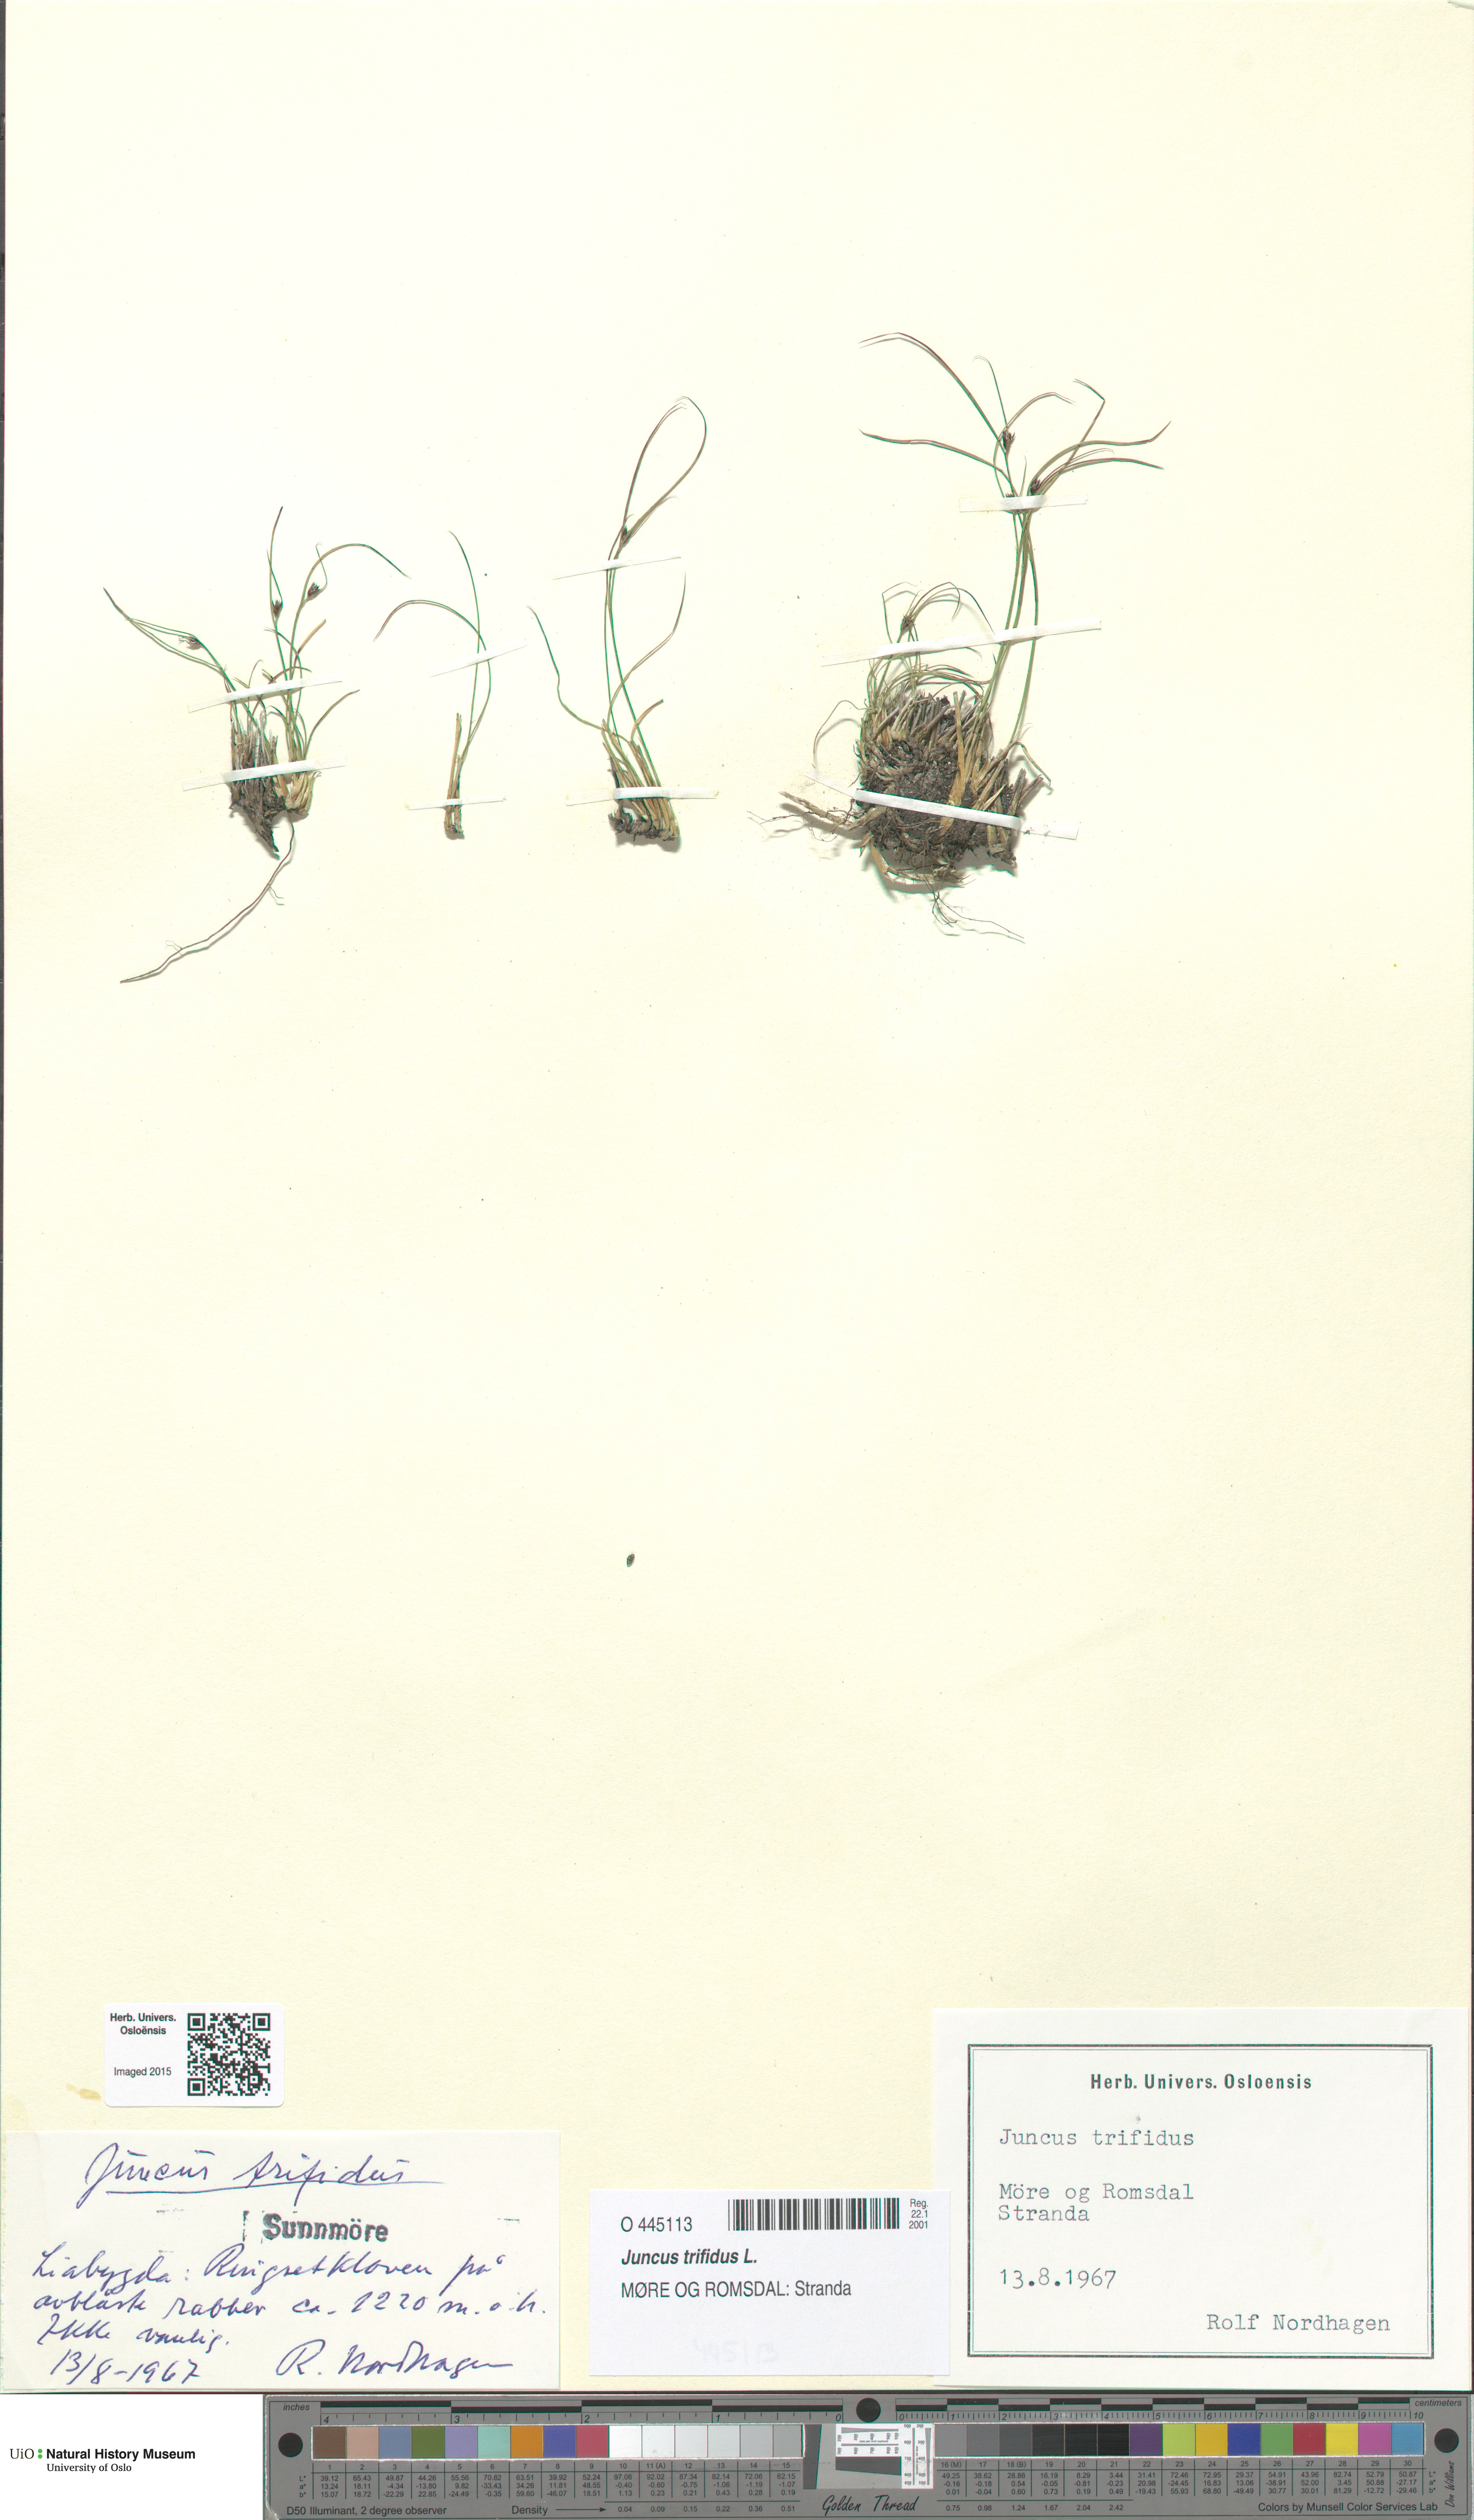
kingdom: Plantae
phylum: Tracheophyta
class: Liliopsida
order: Poales
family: Juncaceae
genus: Oreojuncus
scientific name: Oreojuncus trifidus
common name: Highland rush
